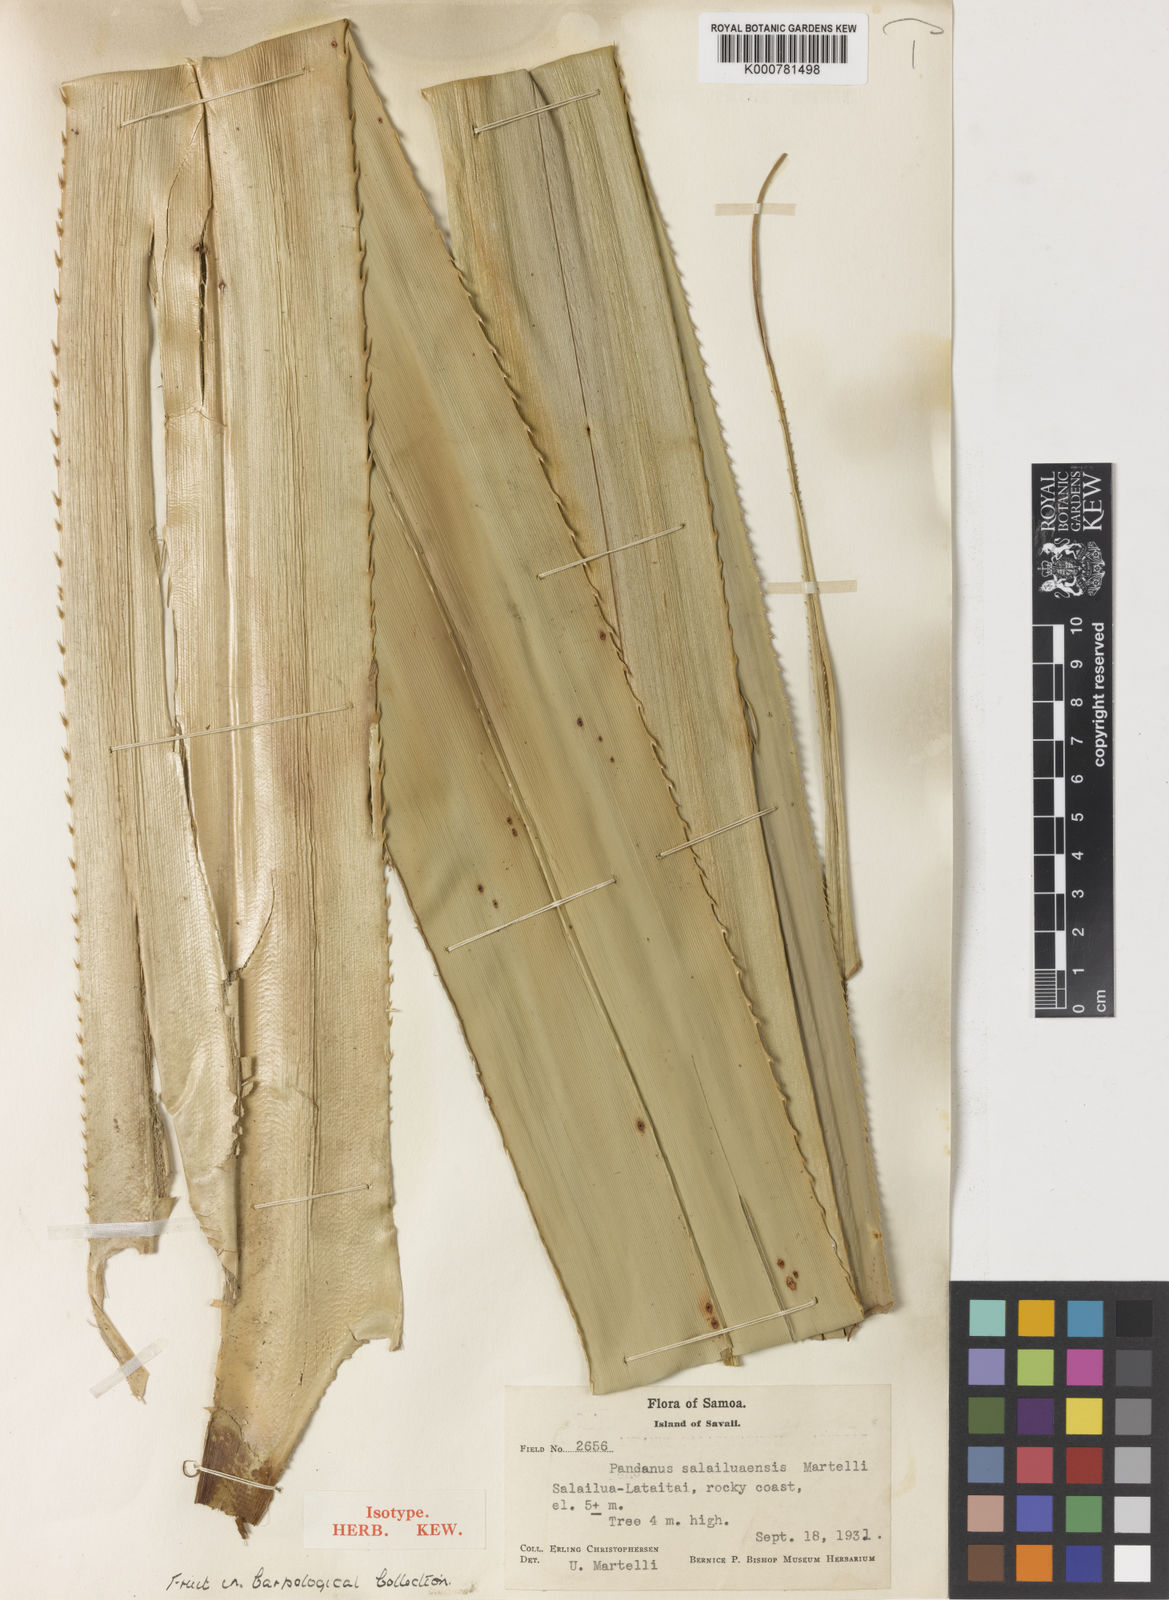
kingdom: Plantae
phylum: Tracheophyta
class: Liliopsida
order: Pandanales
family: Pandanaceae
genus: Pandanus
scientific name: Pandanus salailuaensis
